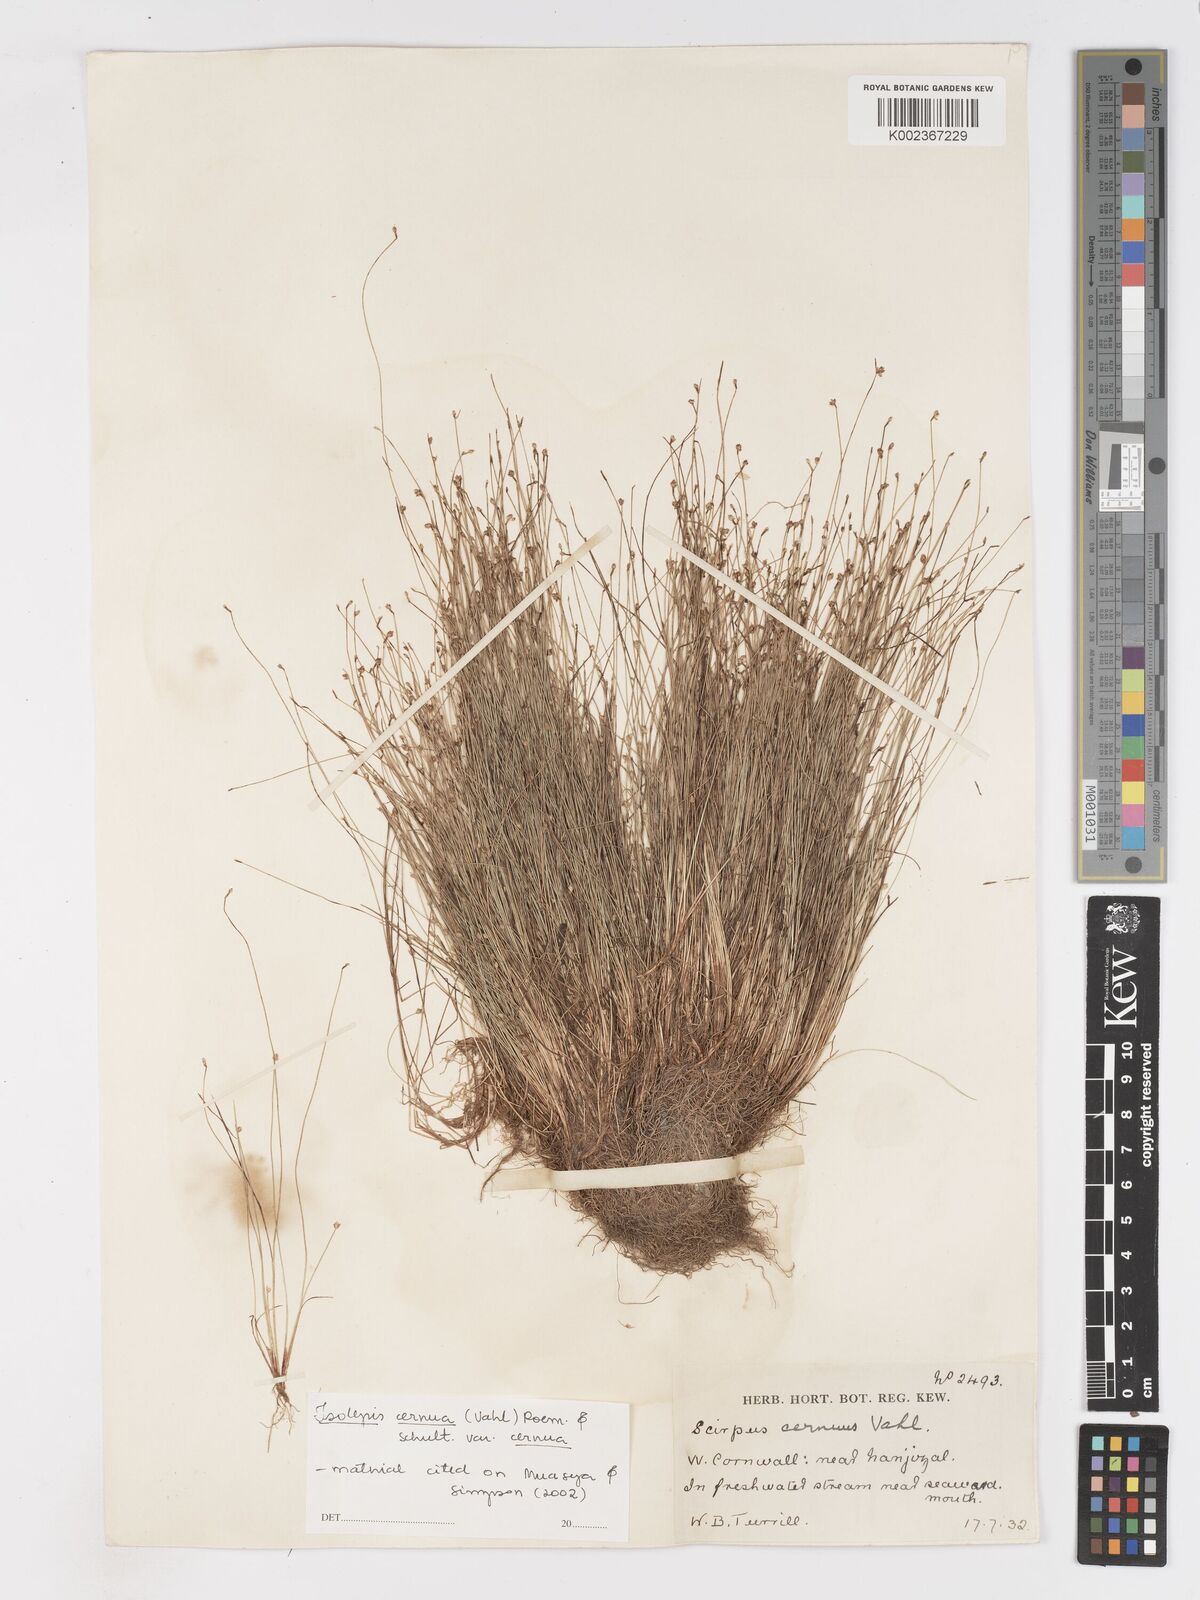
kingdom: Plantae
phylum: Tracheophyta
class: Liliopsida
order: Poales
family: Cyperaceae
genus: Isolepis
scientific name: Isolepis cernua
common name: Slender club-rush
